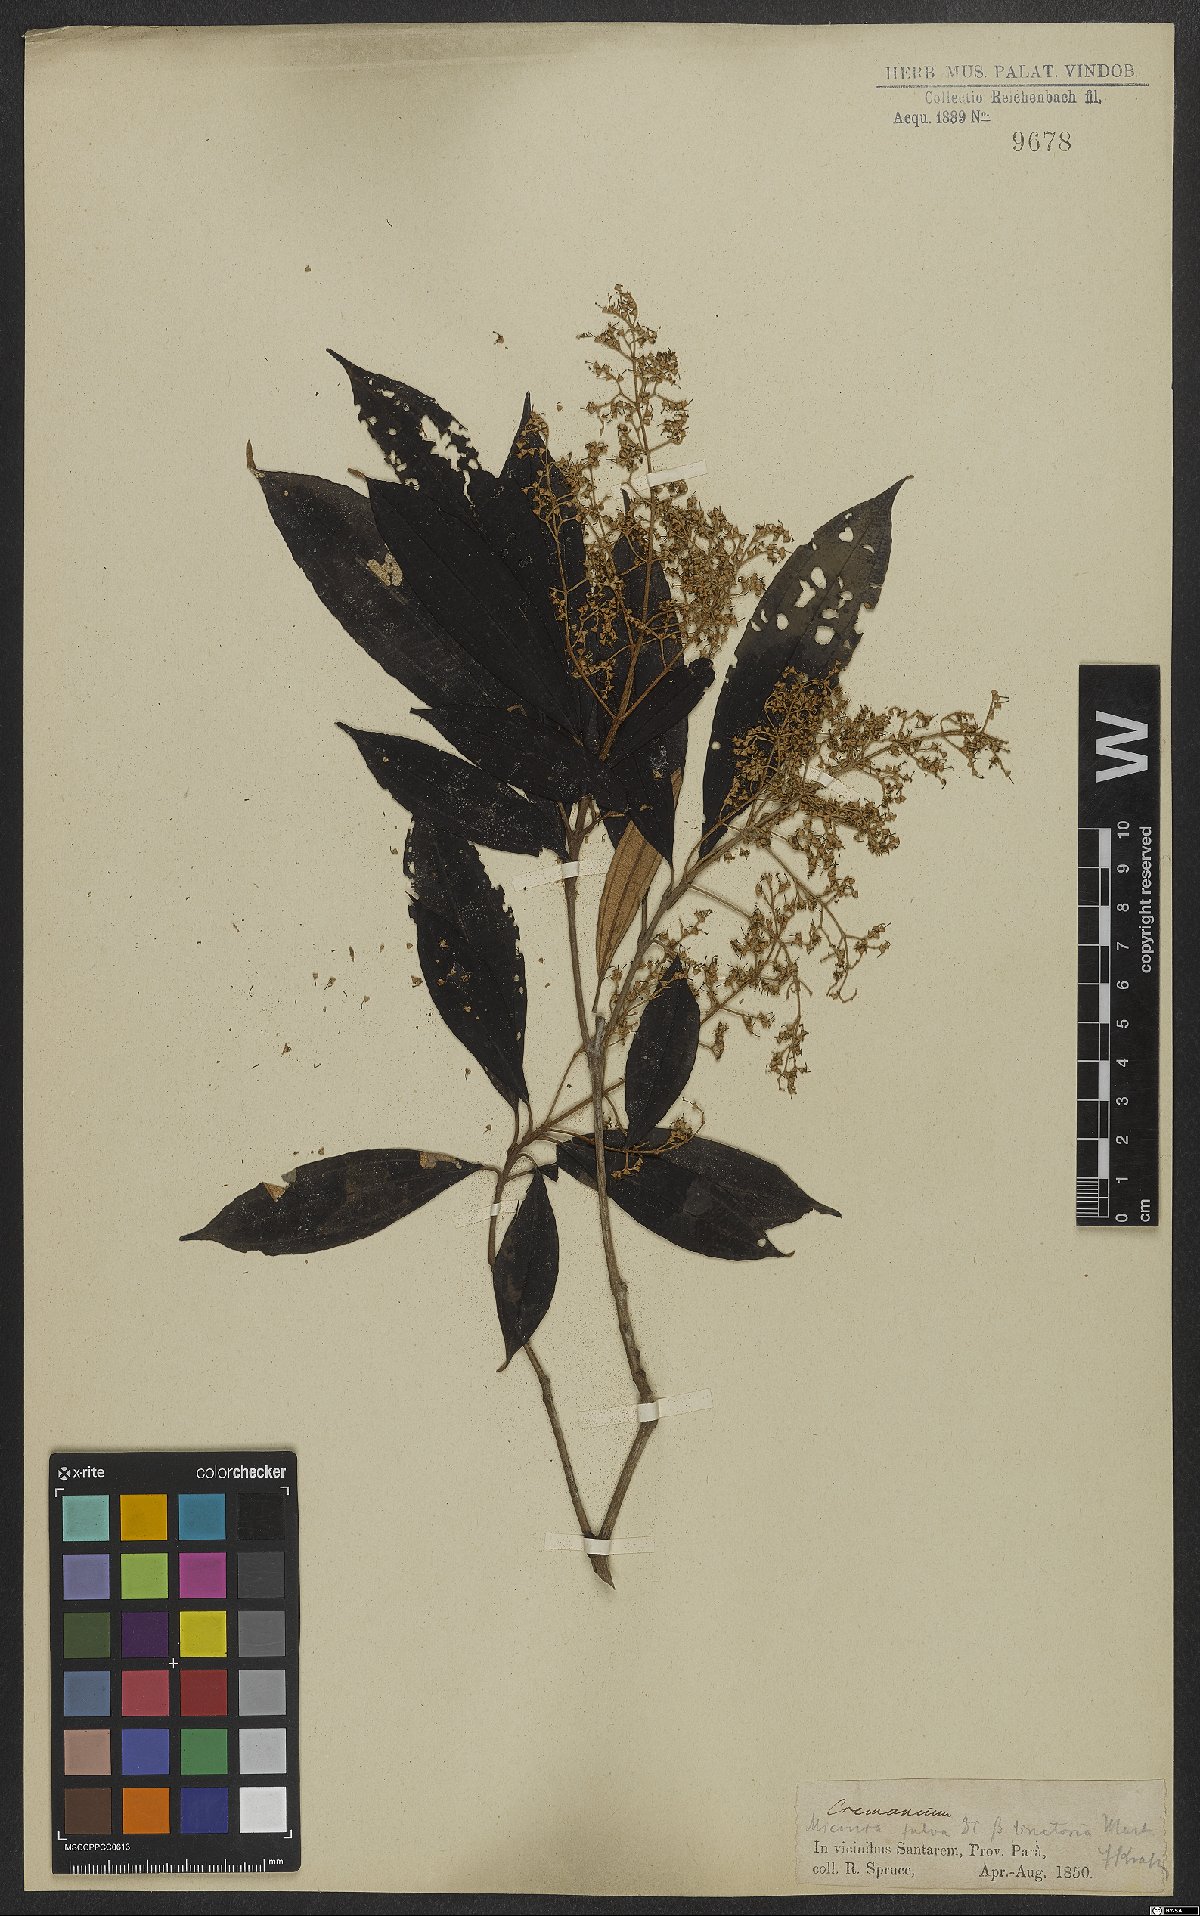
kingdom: Plantae
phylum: Tracheophyta
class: Magnoliopsida
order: Myrtales
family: Melastomataceae
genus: Miconia
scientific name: Miconia chrysophylla
